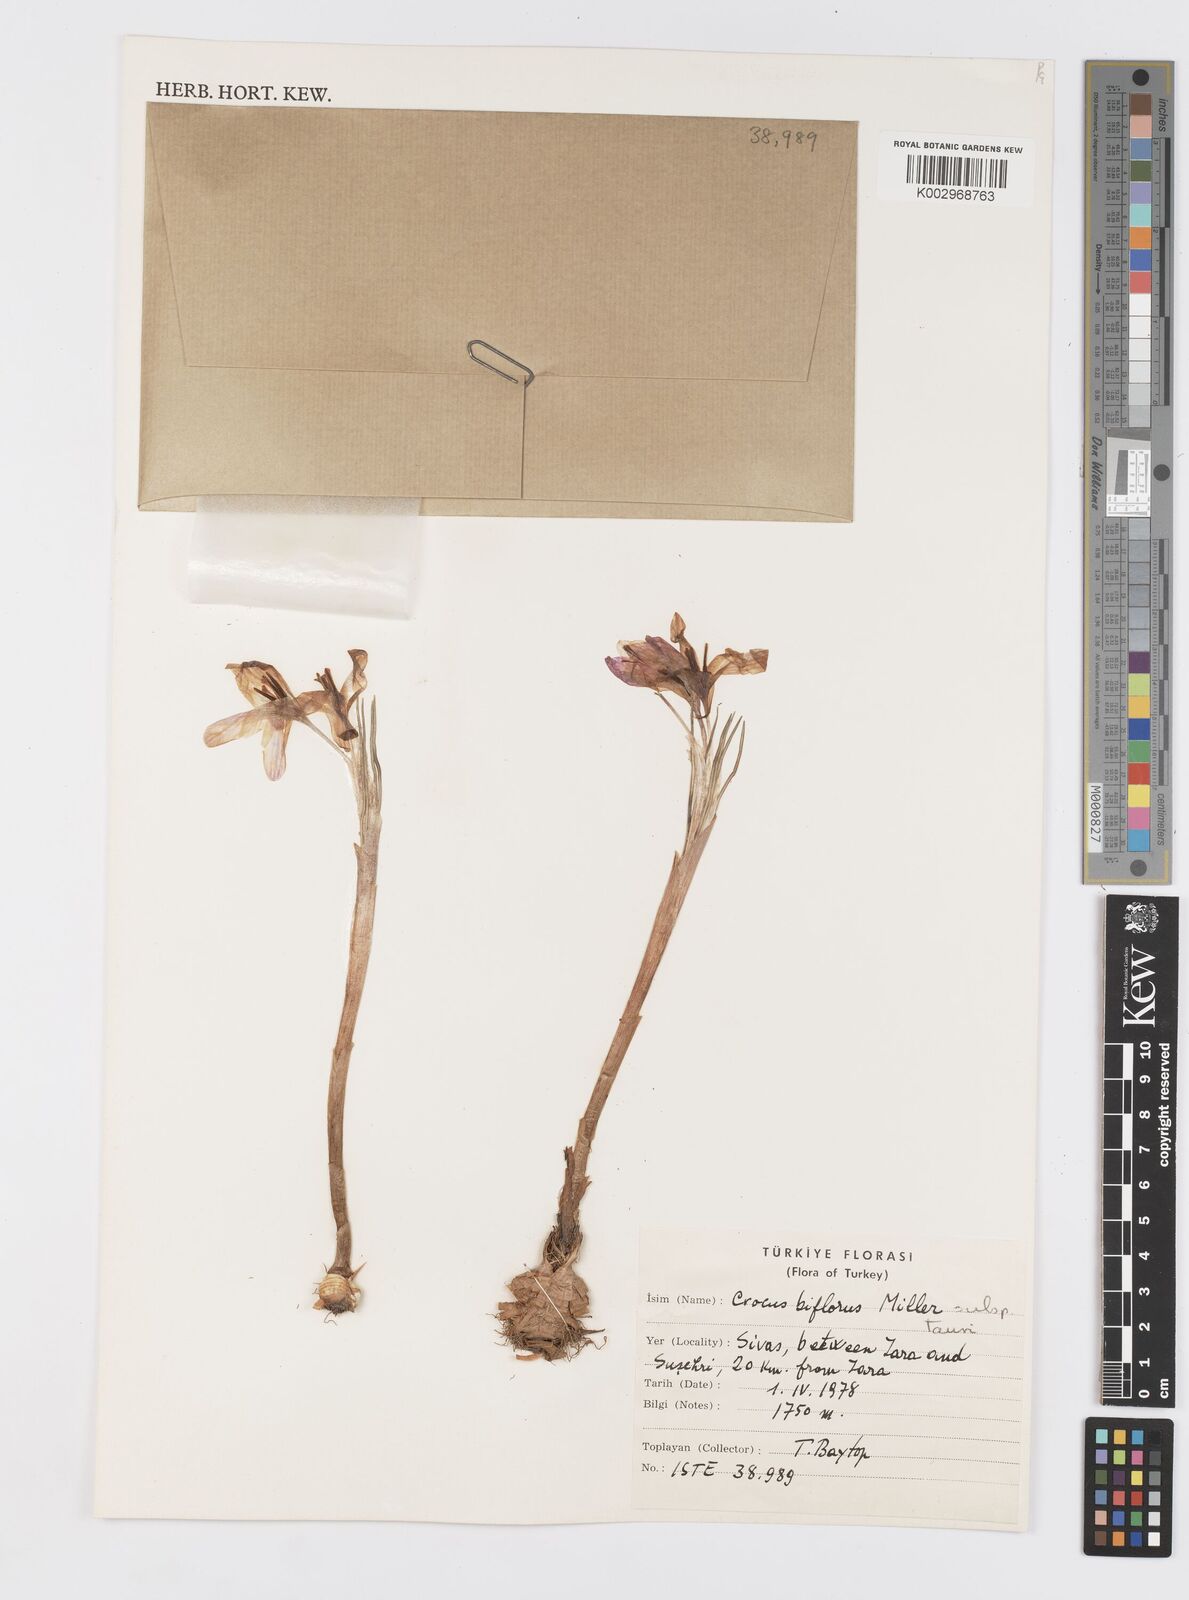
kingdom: Plantae
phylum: Tracheophyta
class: Liliopsida
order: Asparagales
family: Iridaceae
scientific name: Iridaceae
